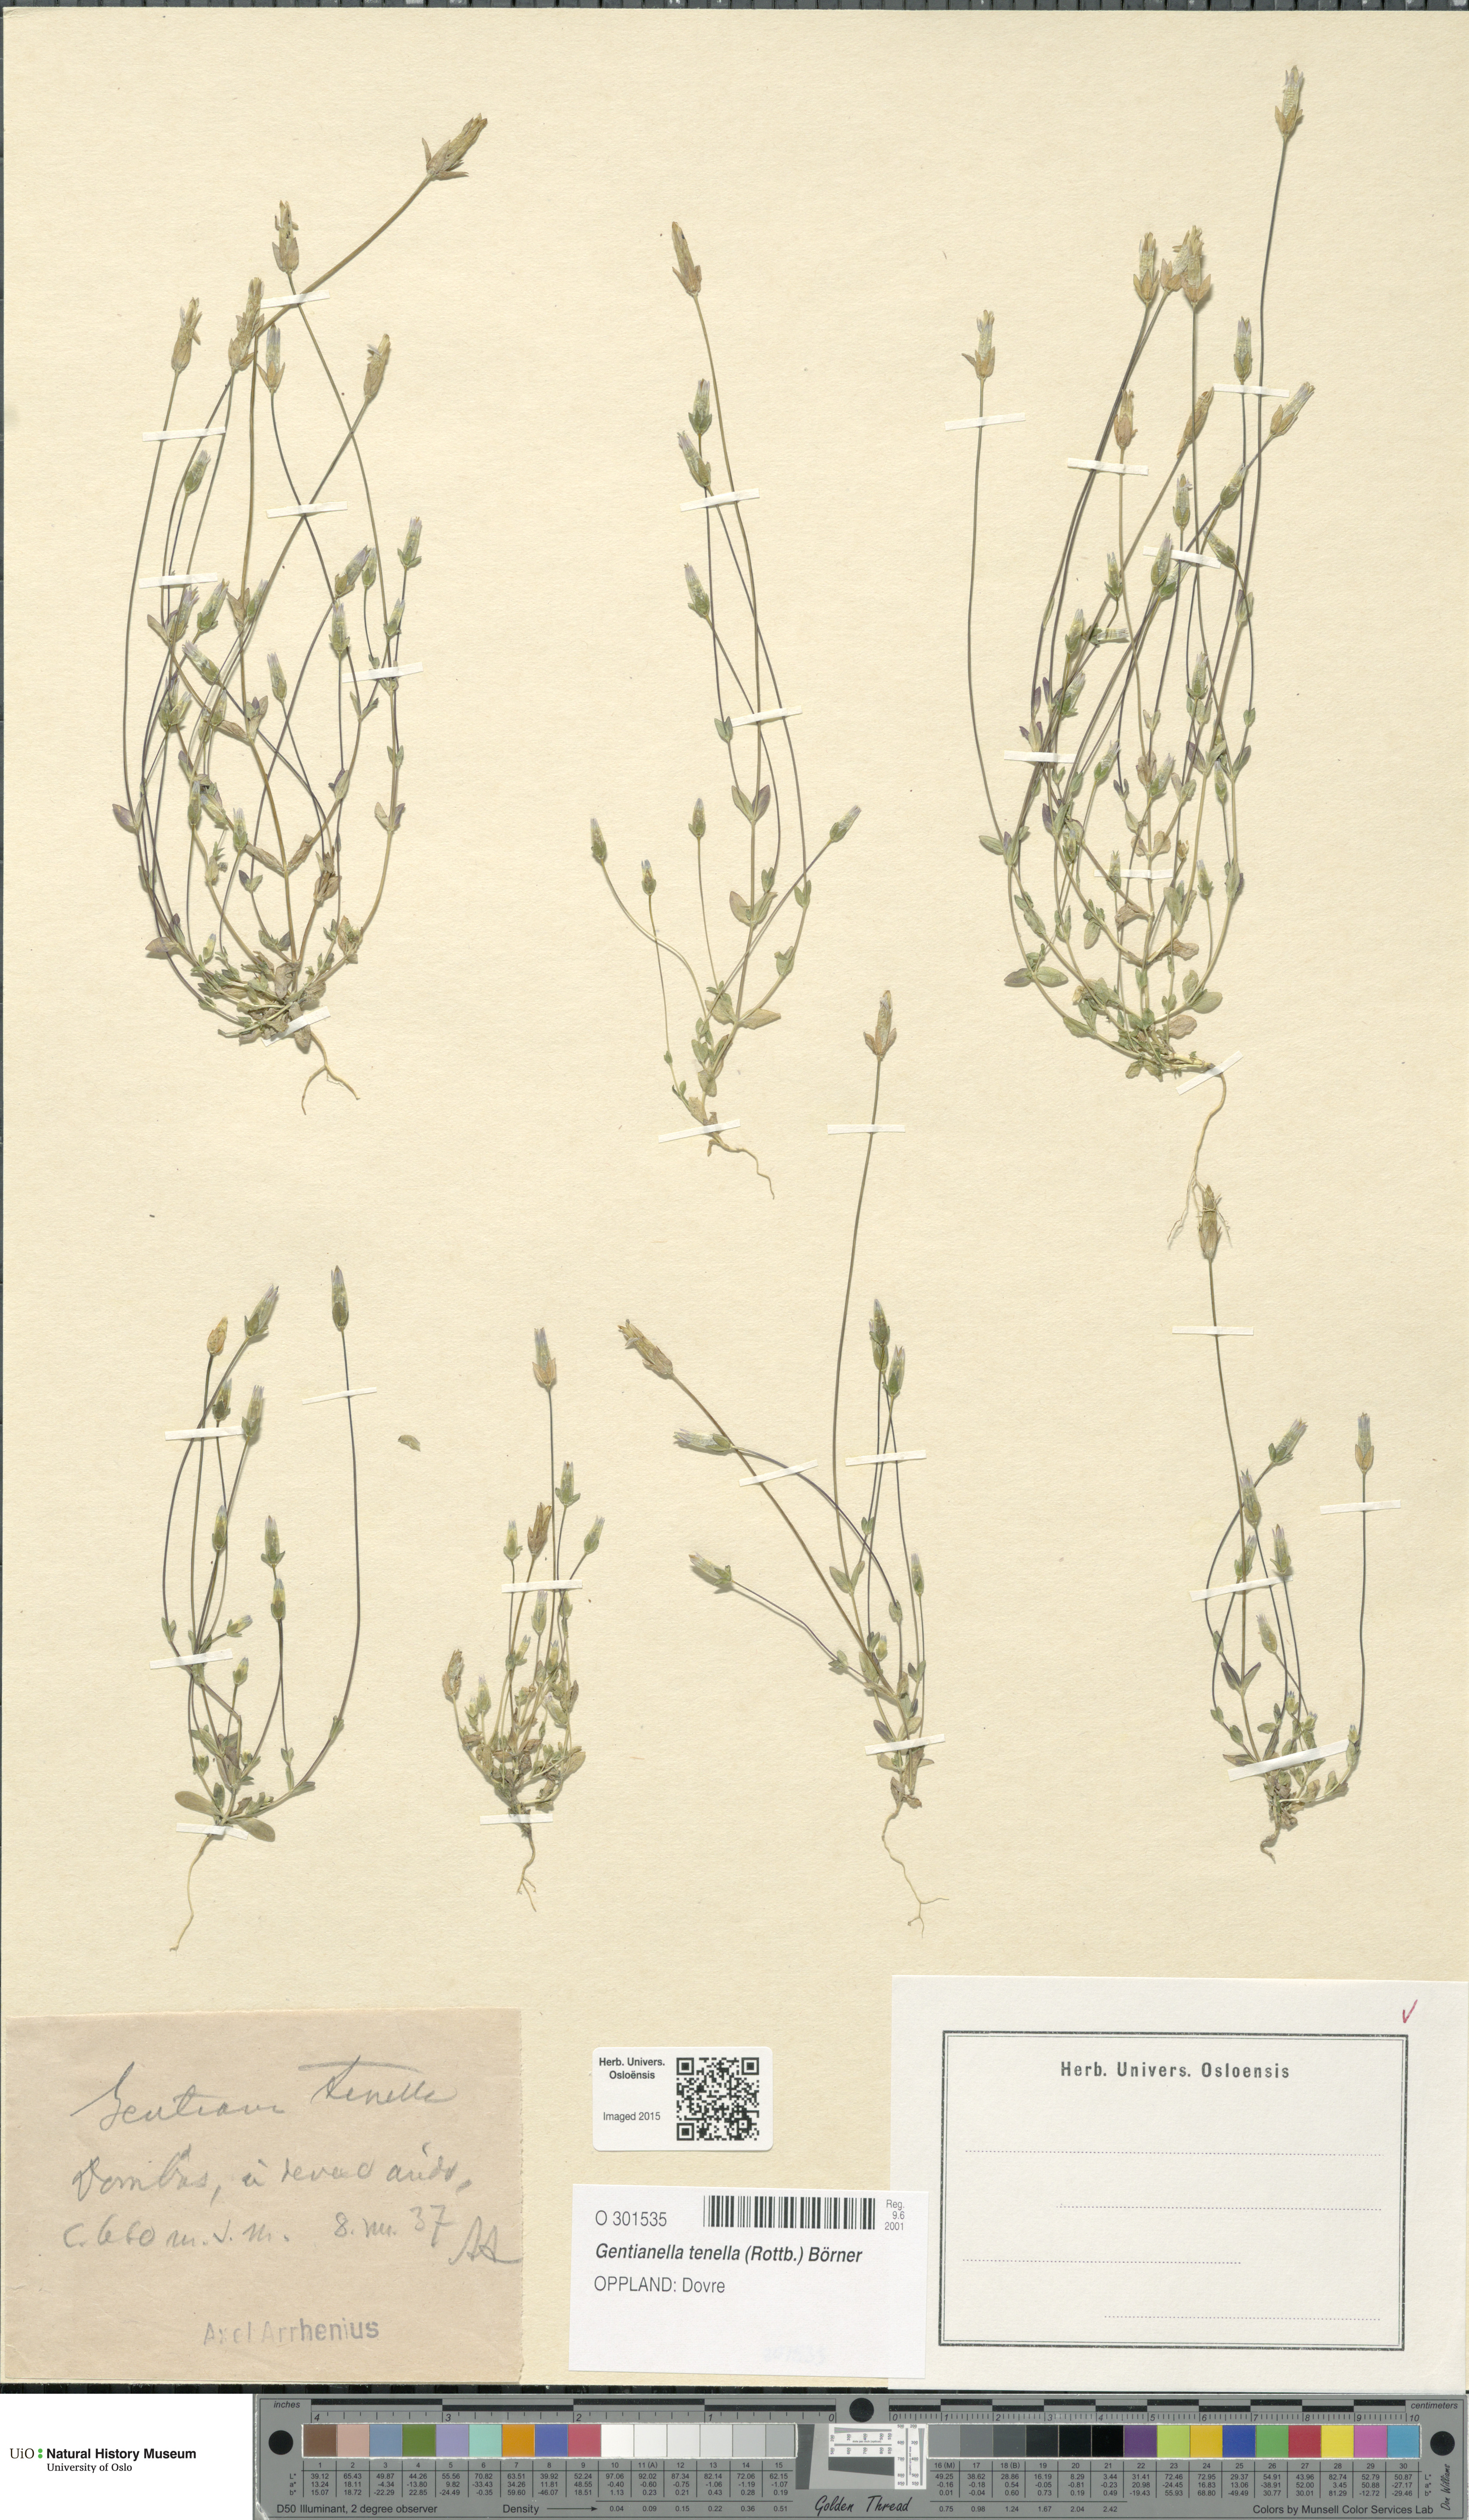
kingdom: Plantae
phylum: Tracheophyta
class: Magnoliopsida
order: Gentianales
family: Gentianaceae
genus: Comastoma
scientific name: Comastoma tenellum
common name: Dane's dwarf gentian
